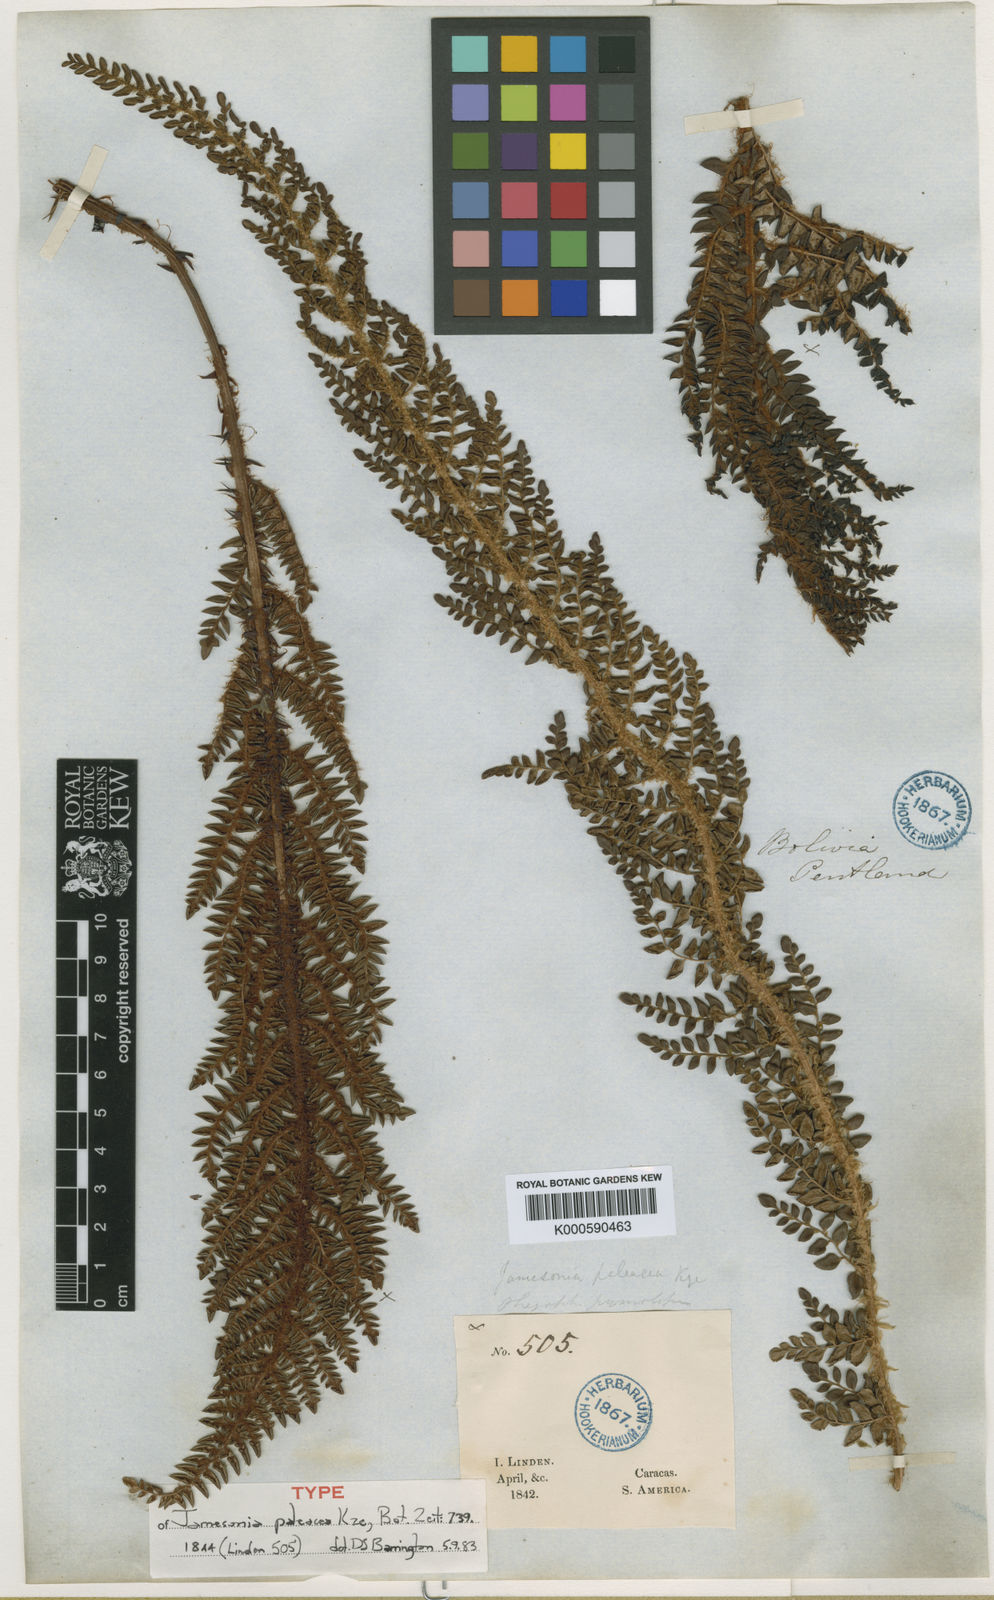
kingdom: Plantae
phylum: Tracheophyta
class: Polypodiopsida
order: Polypodiales
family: Dryopteridaceae
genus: Polystichum
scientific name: Polystichum
